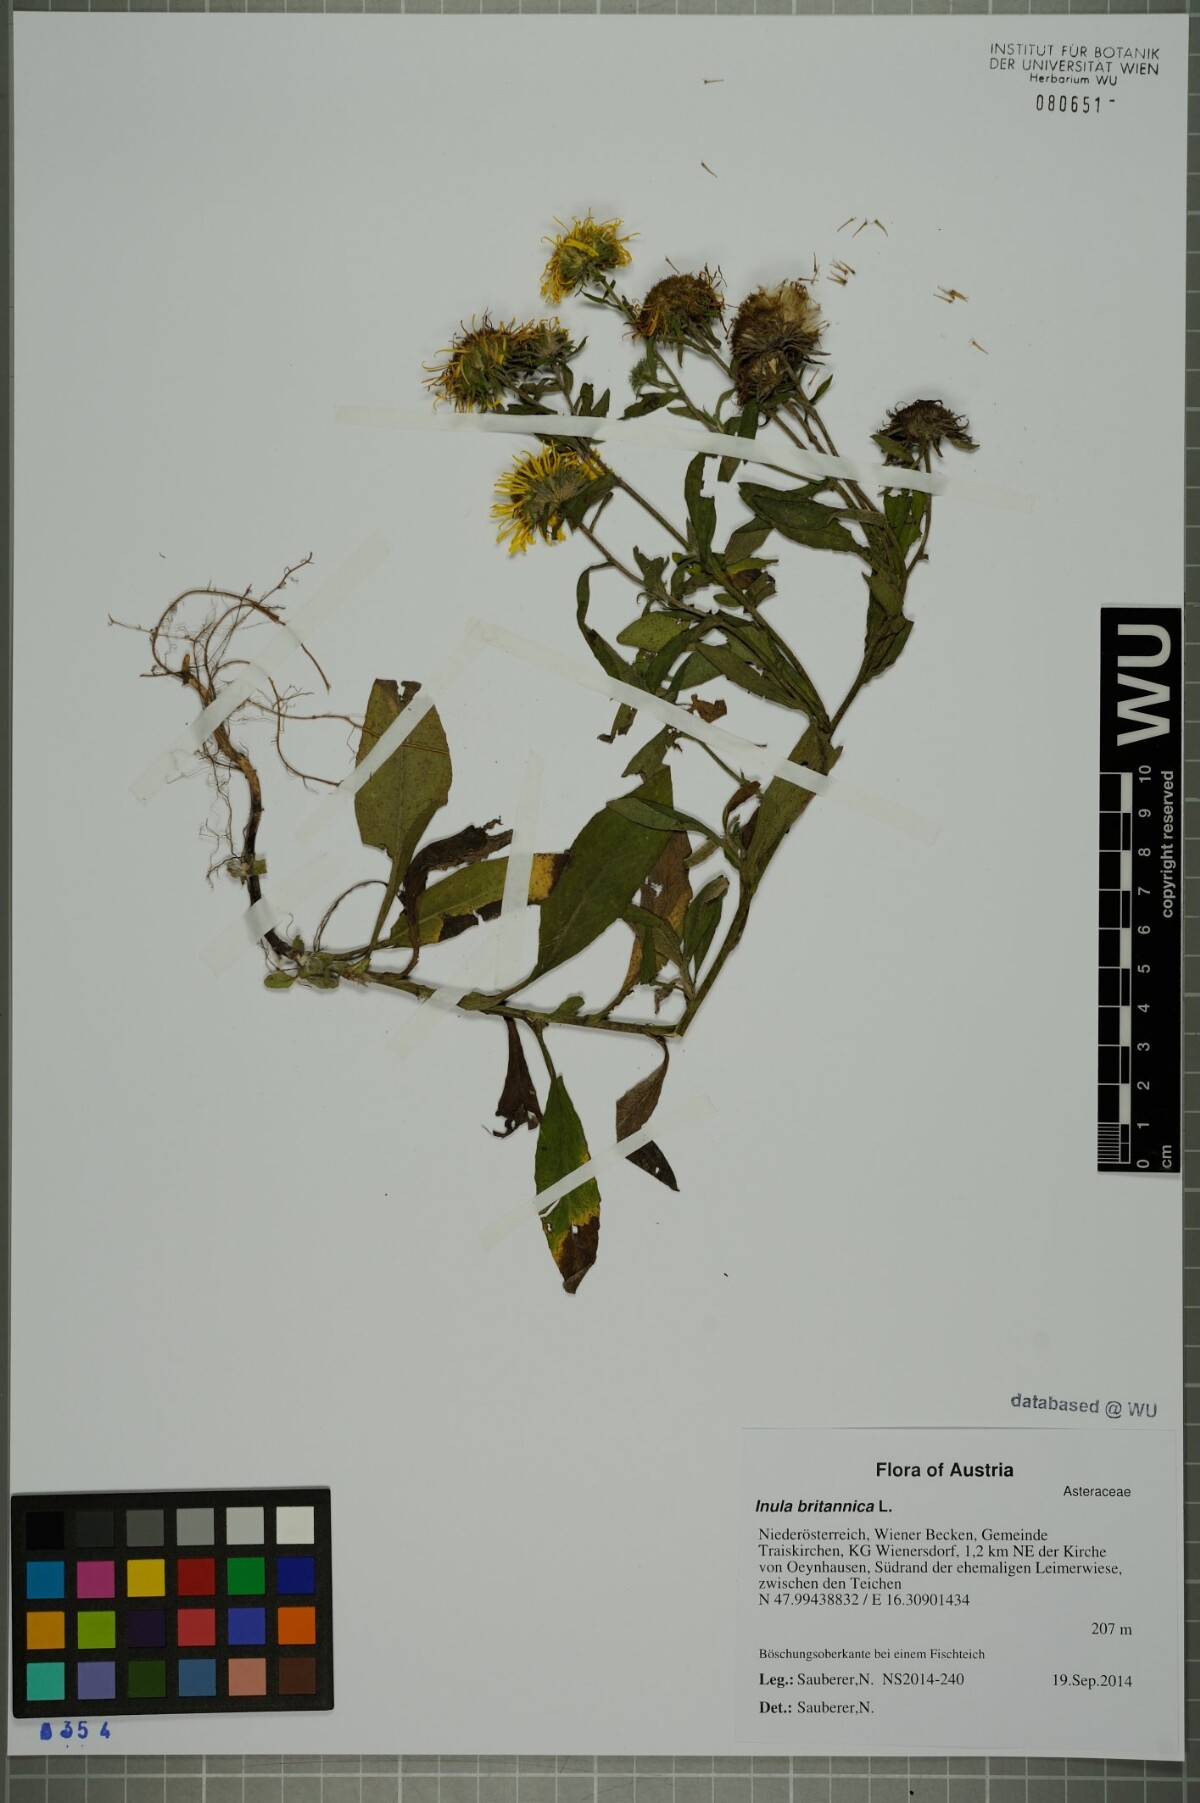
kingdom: Plantae
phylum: Tracheophyta
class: Magnoliopsida
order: Asterales
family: Asteraceae
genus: Pentanema
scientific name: Pentanema britannicum
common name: British elecampane
